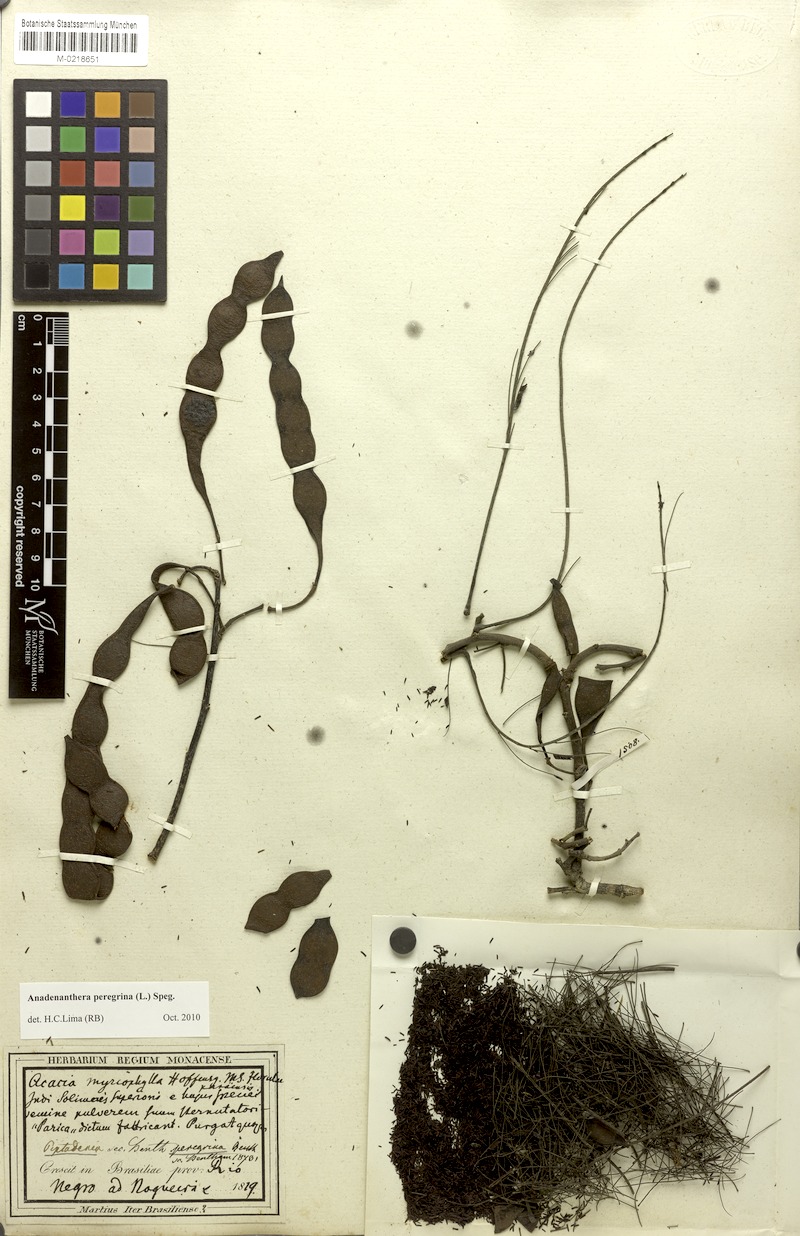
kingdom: Plantae
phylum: Tracheophyta
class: Magnoliopsida
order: Fabales
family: Fabaceae
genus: Anadenanthera
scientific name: Anadenanthera peregrina
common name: Cohoba
